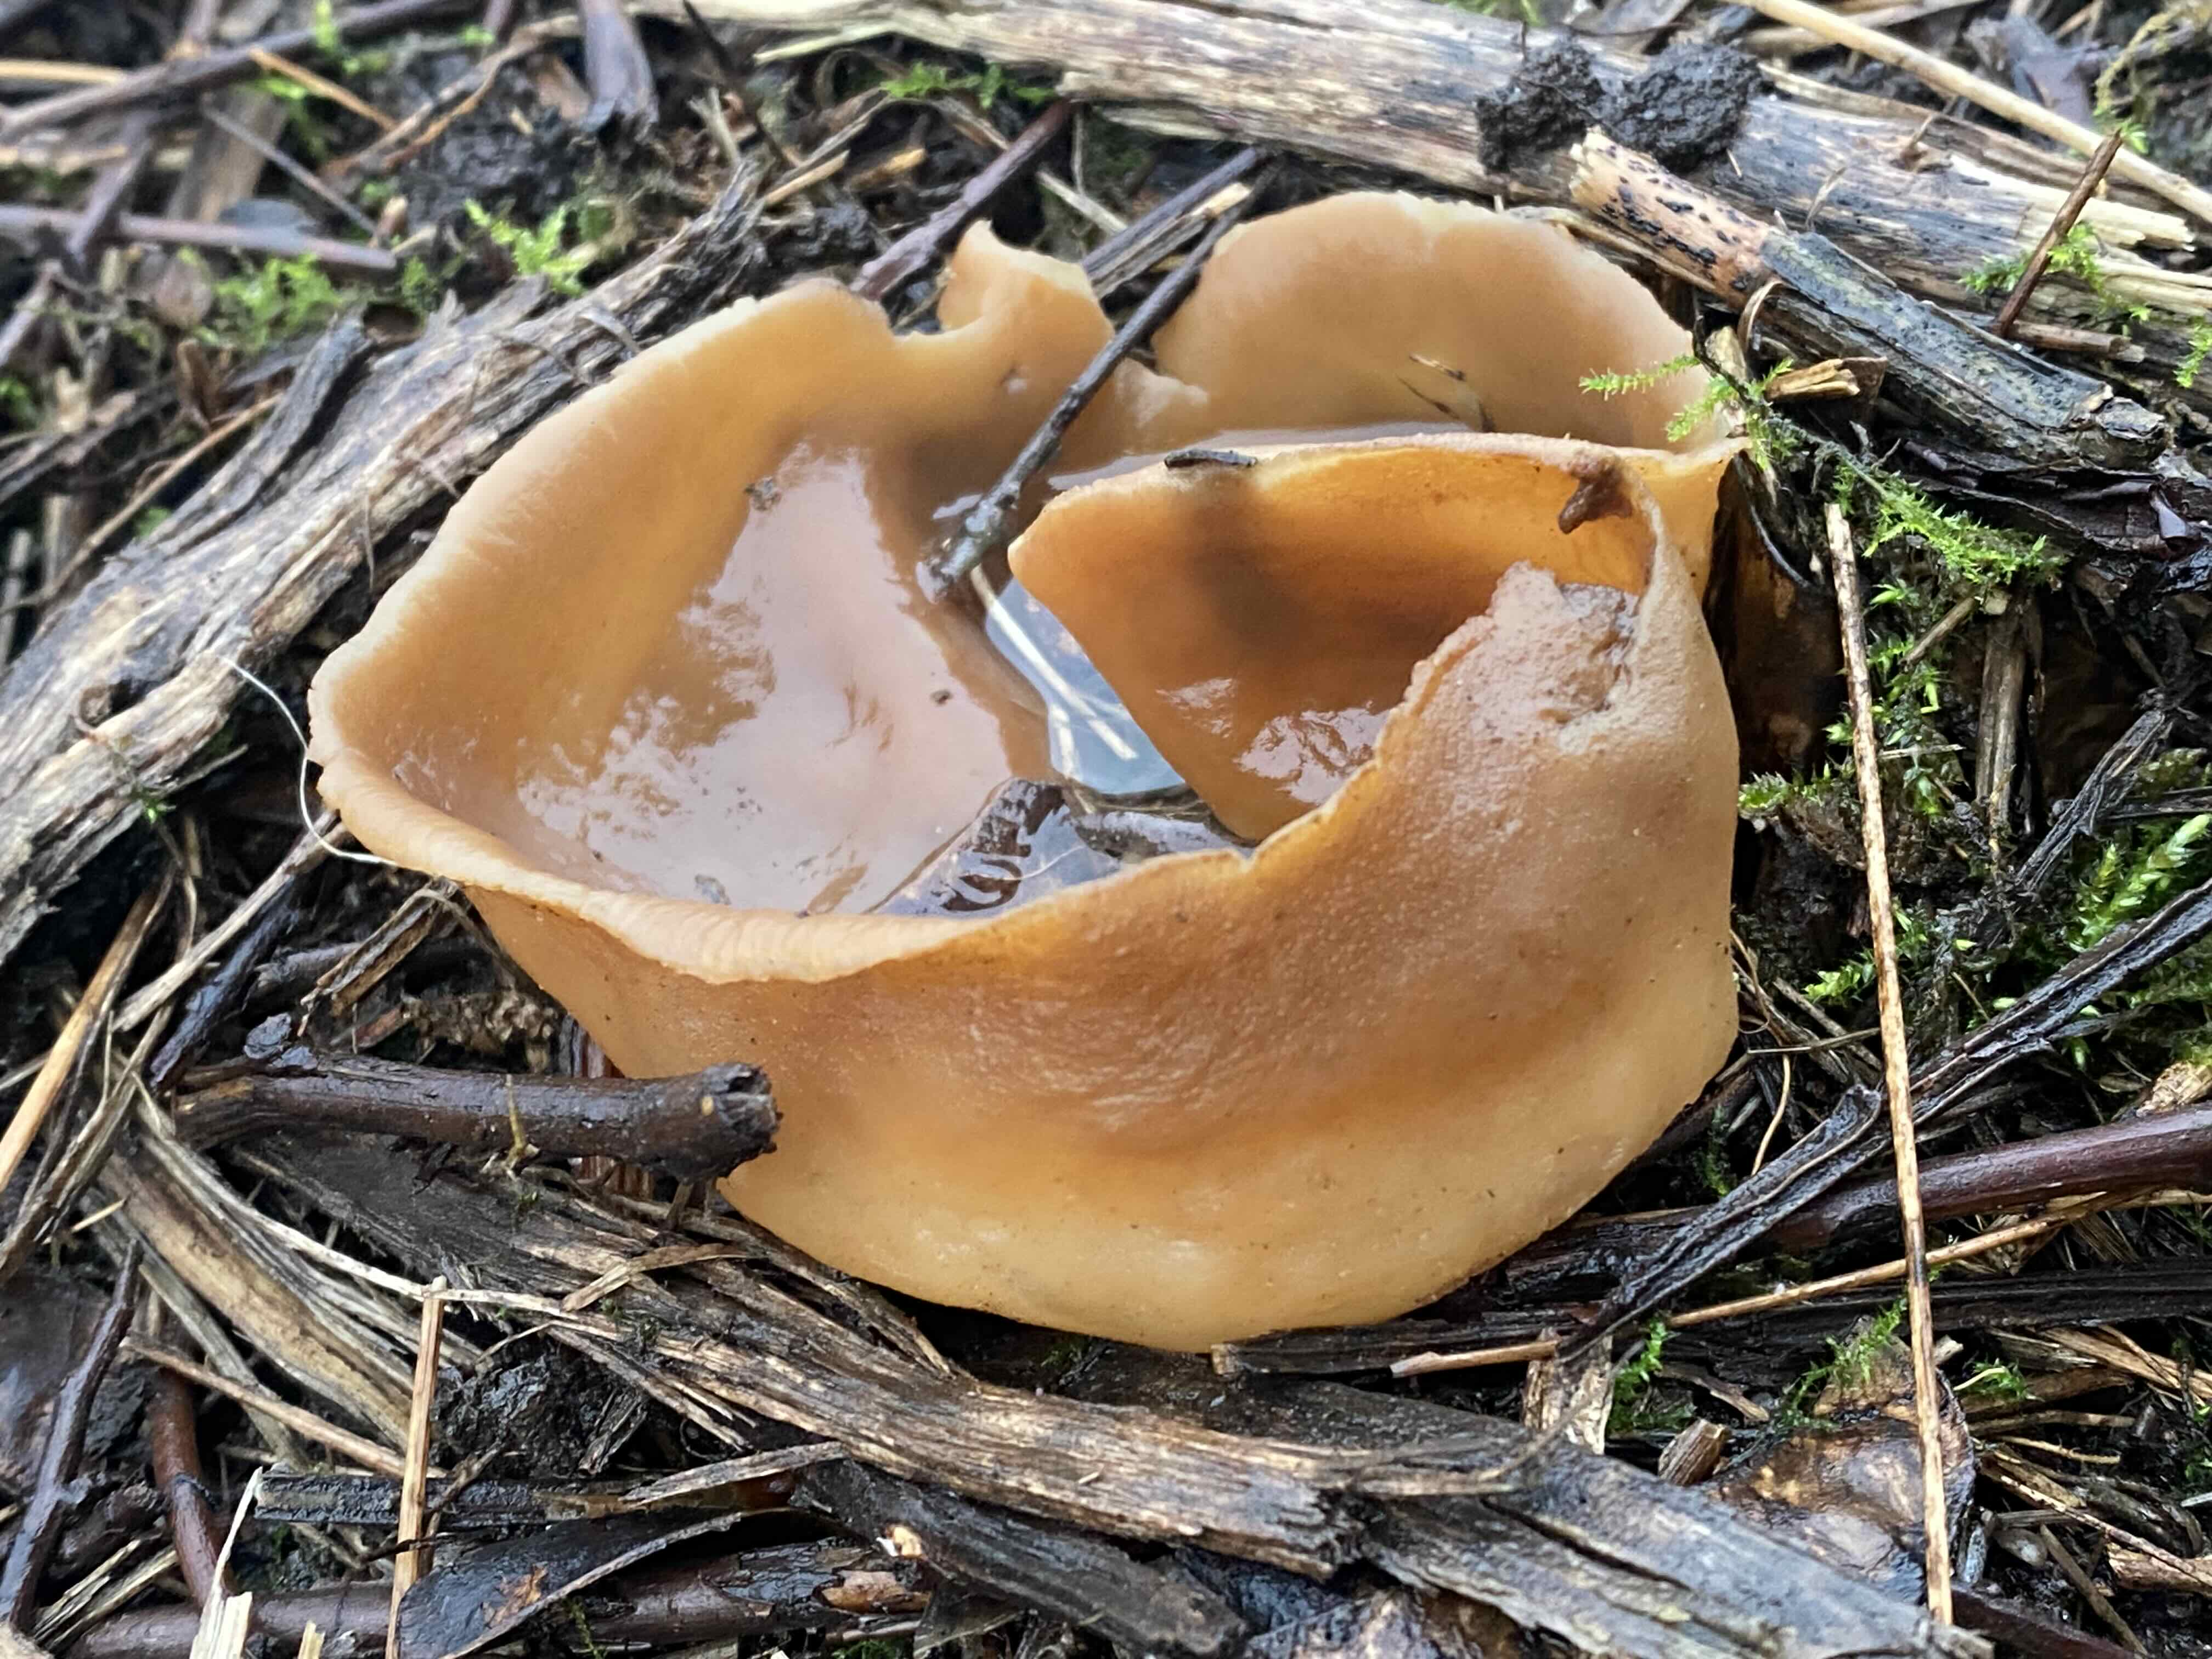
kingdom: Fungi
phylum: Ascomycota
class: Pezizomycetes
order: Pezizales
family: Pezizaceae
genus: Peziza
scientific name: Peziza vesiculosa
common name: blære-bægersvamp
